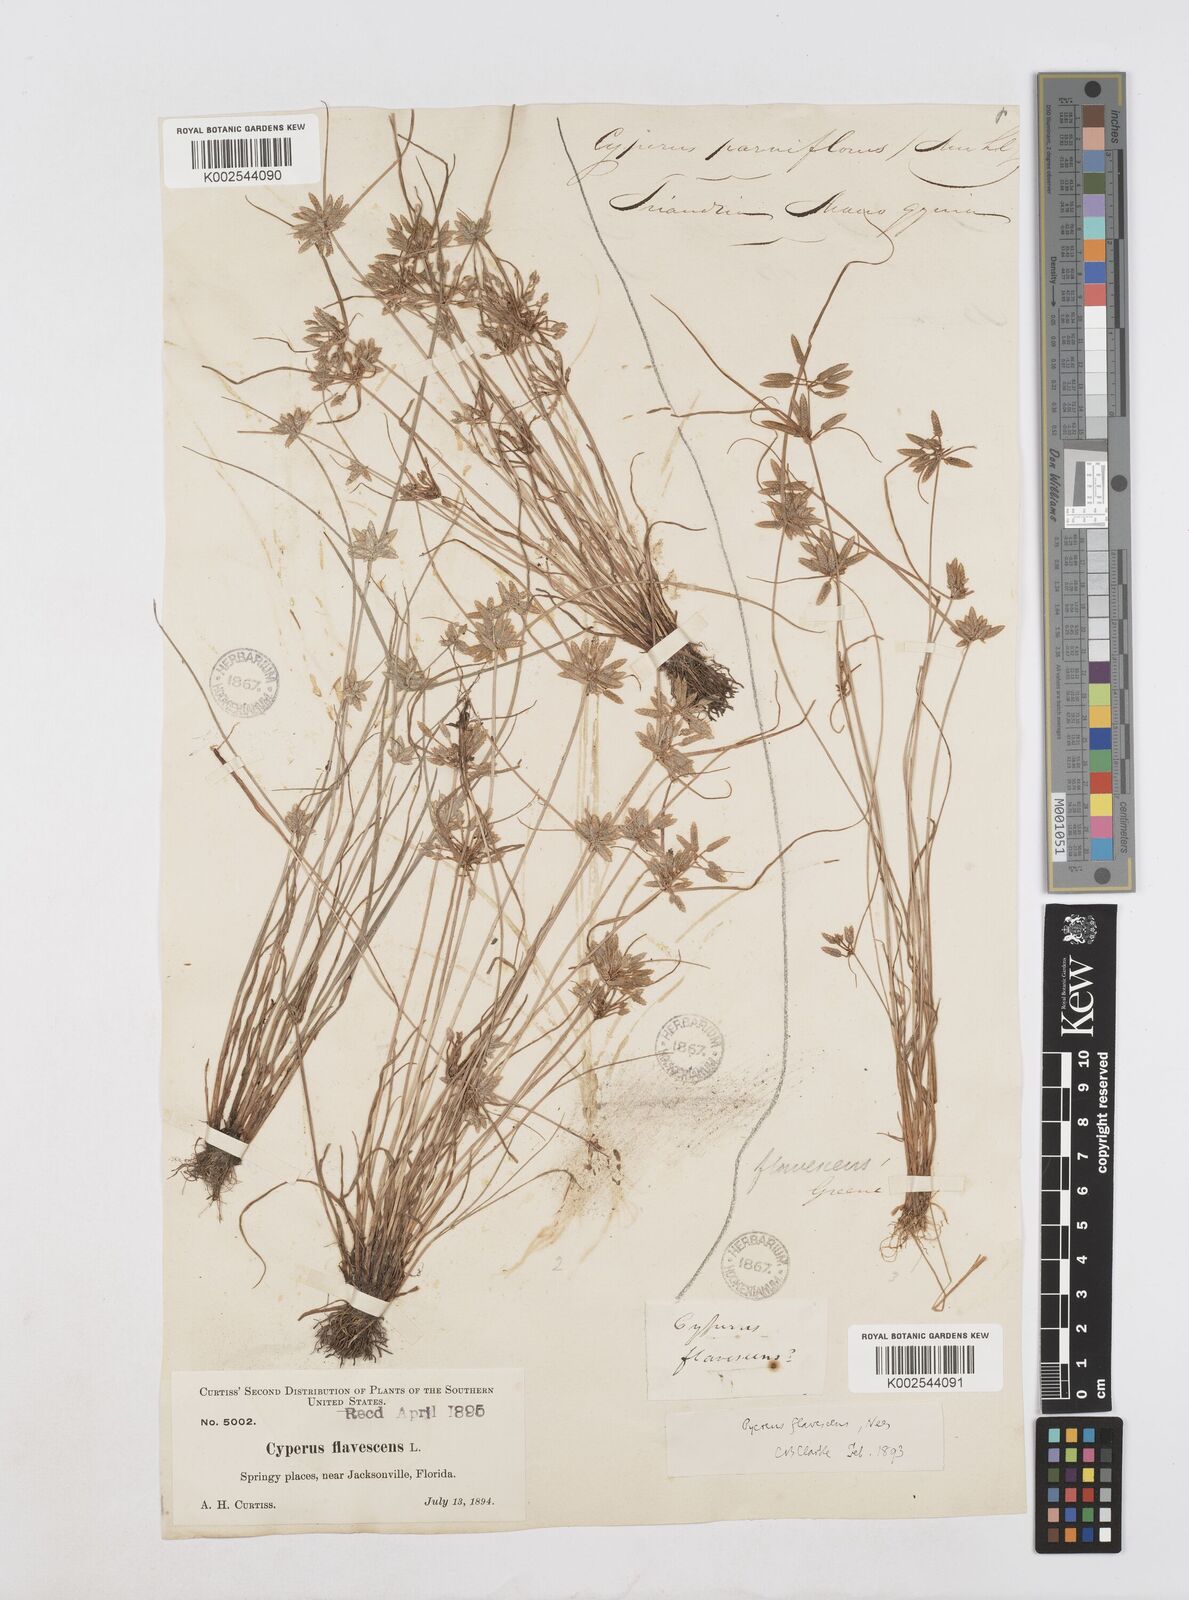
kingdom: Plantae
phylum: Tracheophyta
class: Liliopsida
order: Poales
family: Cyperaceae
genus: Cyperus
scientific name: Cyperus flavescens
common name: Yellow galingale
